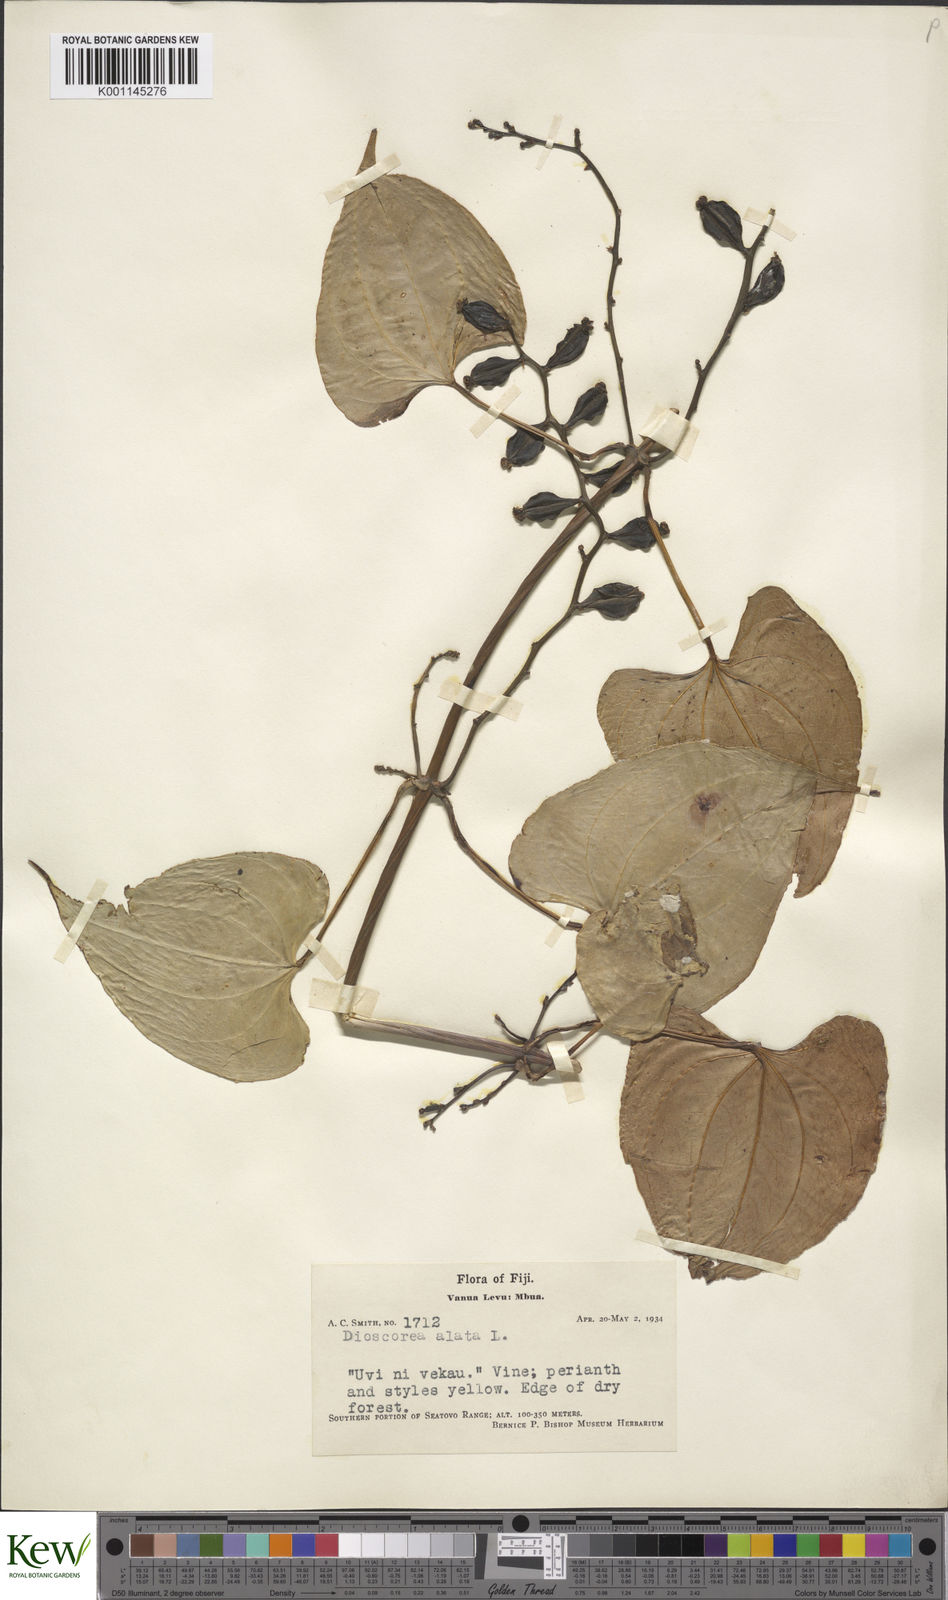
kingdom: Plantae
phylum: Tracheophyta
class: Liliopsida
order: Dioscoreales
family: Dioscoreaceae
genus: Dioscorea
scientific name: Dioscorea alata
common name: Water yam
